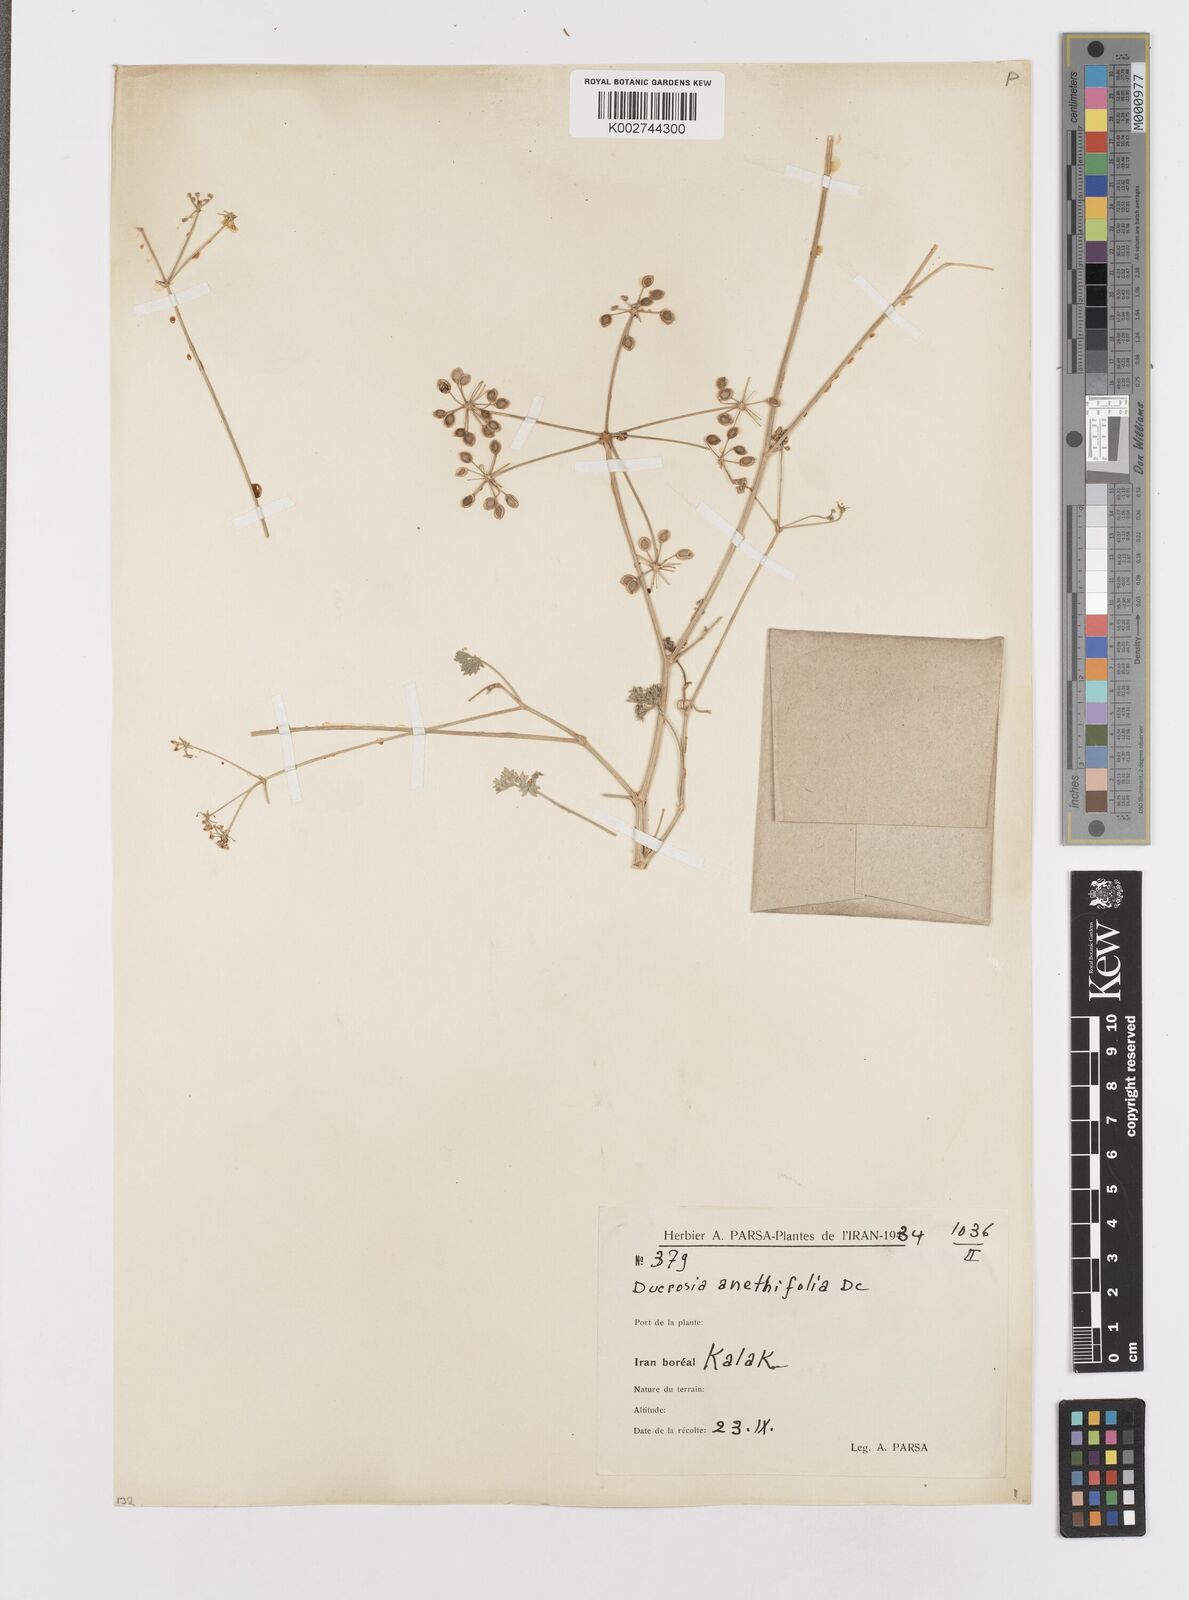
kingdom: Plantae
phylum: Tracheophyta
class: Magnoliopsida
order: Apiales
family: Apiaceae
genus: Ducrosia
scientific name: Ducrosia anethifolia
